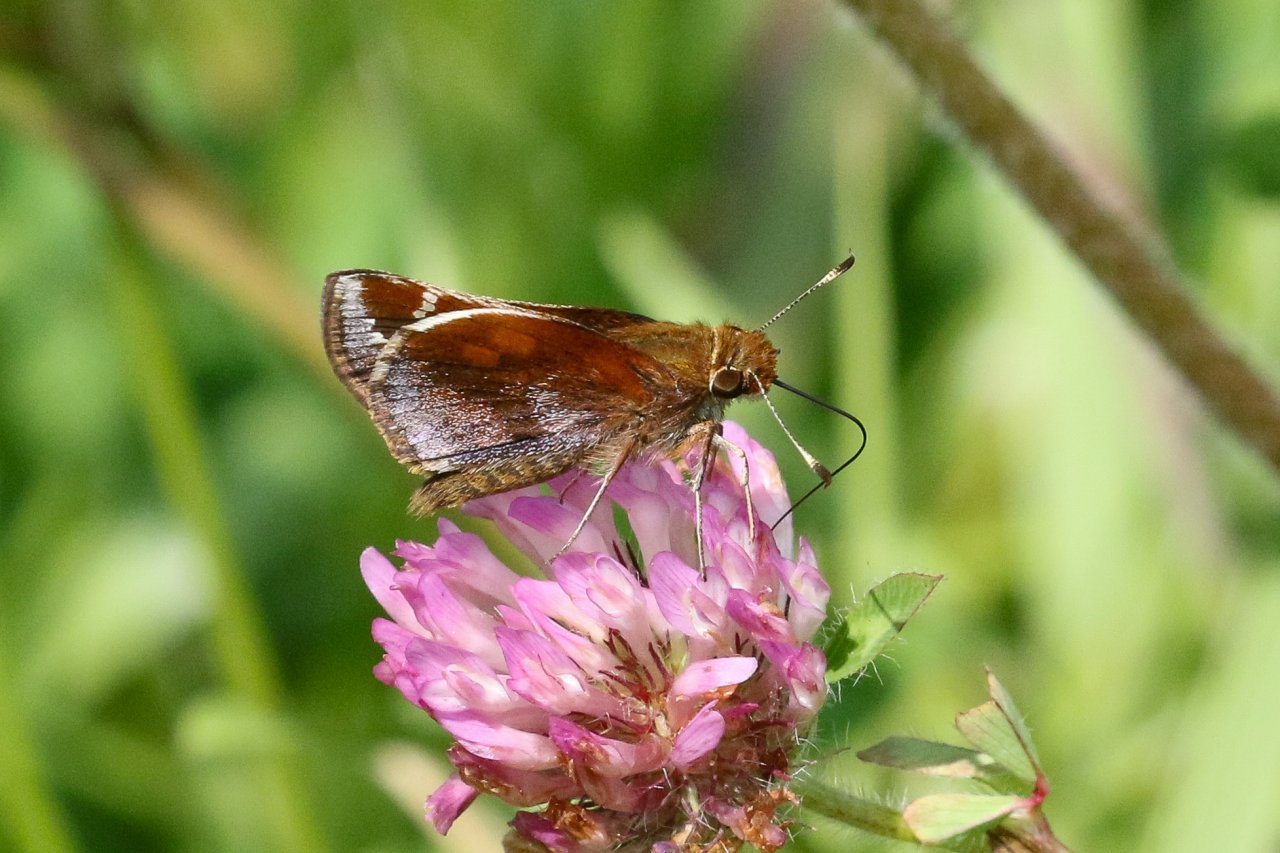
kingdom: Animalia
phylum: Arthropoda
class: Insecta
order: Lepidoptera
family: Hesperiidae
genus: Lon
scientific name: Lon zabulon
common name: Zabulon Skipper
